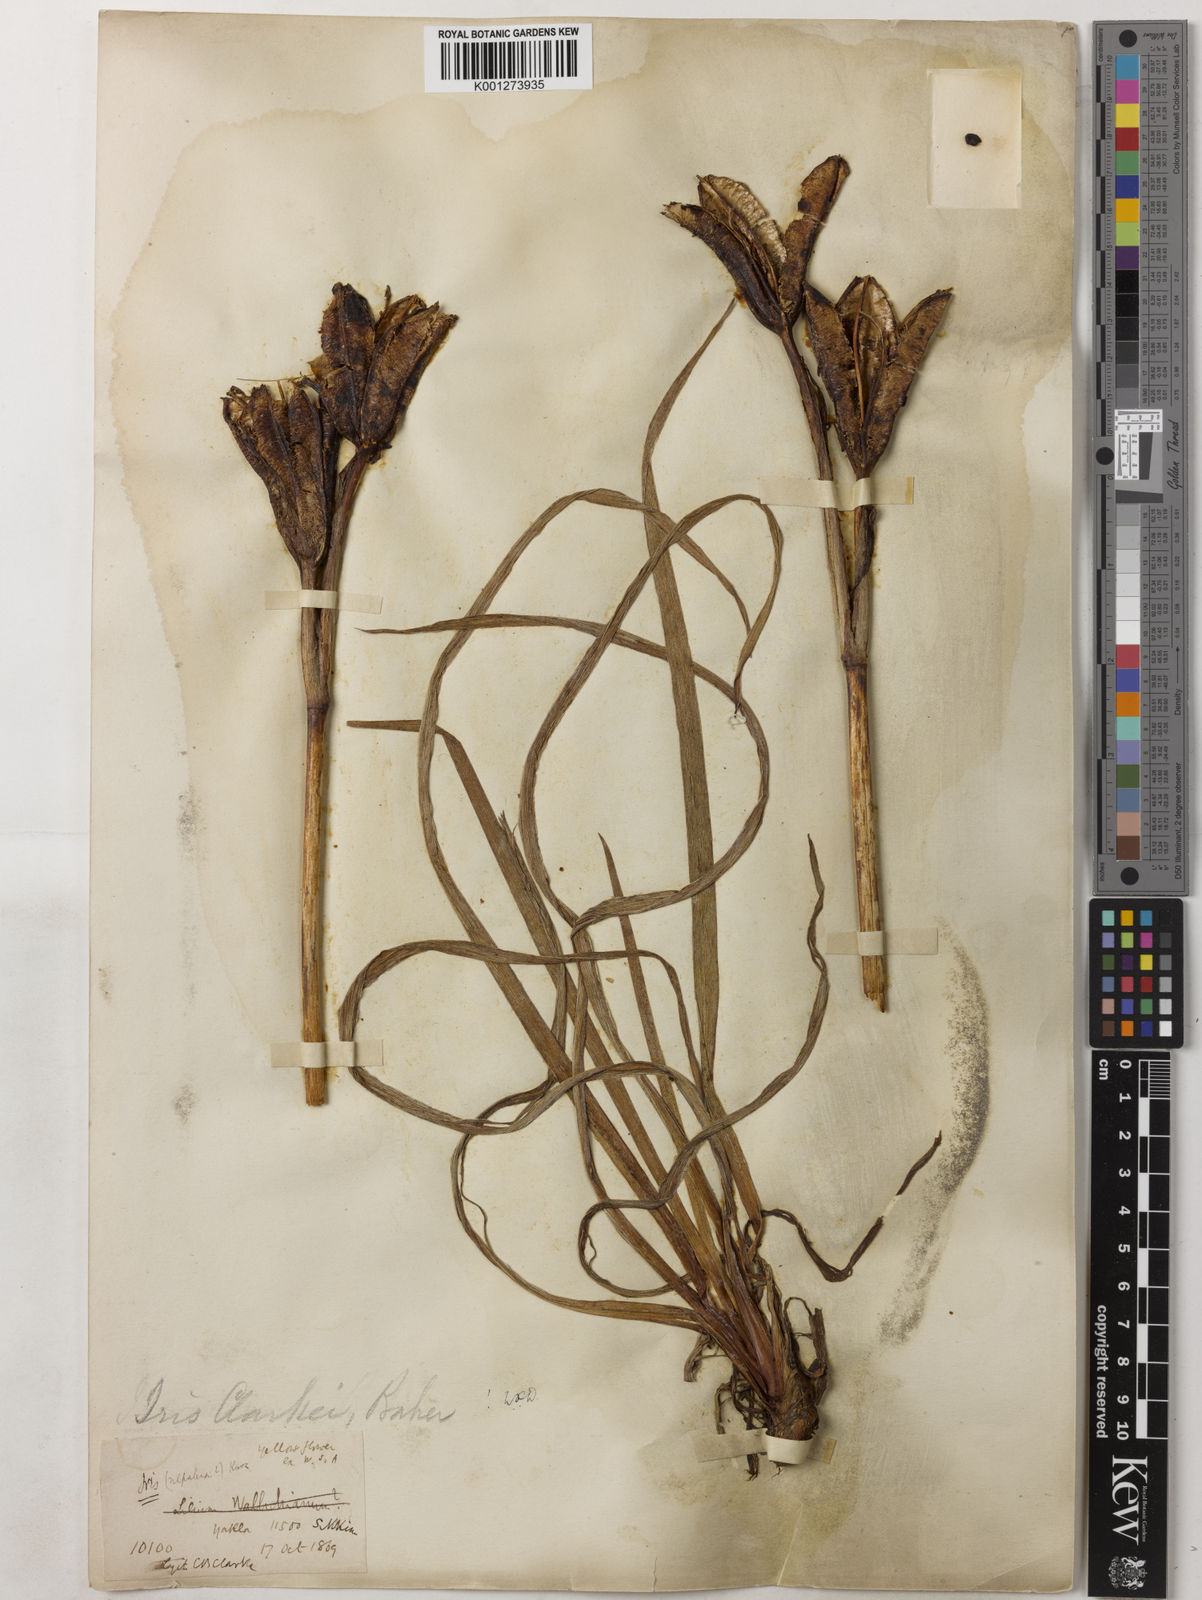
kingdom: Plantae
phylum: Tracheophyta
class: Liliopsida
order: Asparagales
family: Iridaceae
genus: Iris
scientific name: Iris clarkei
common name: Tibet iris
